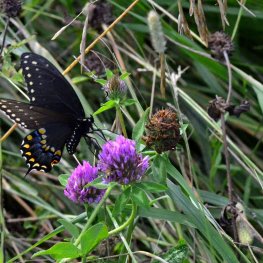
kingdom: Animalia
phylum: Arthropoda
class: Insecta
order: Lepidoptera
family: Papilionidae
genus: Papilio
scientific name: Papilio polyxenes
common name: Black Swallowtail
